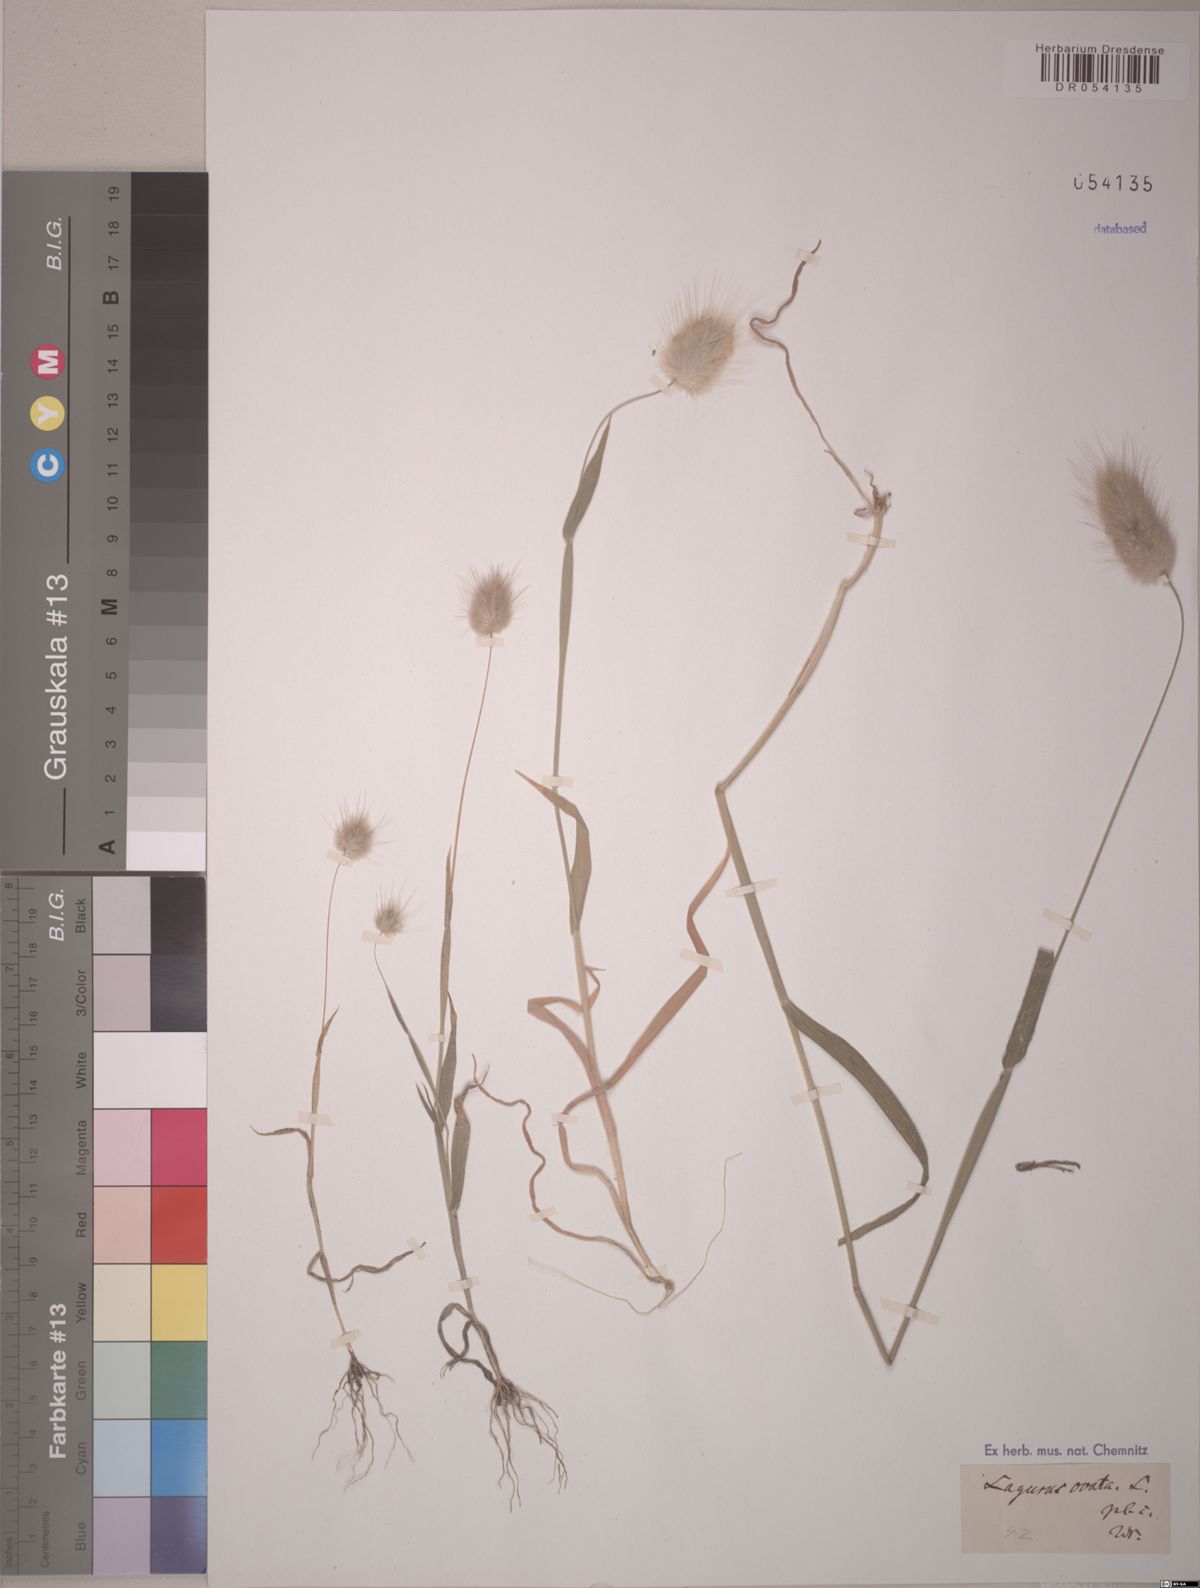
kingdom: Plantae
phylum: Tracheophyta
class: Liliopsida
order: Poales
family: Poaceae
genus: Lagurus
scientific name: Lagurus ovatus
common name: Hare's-tail
